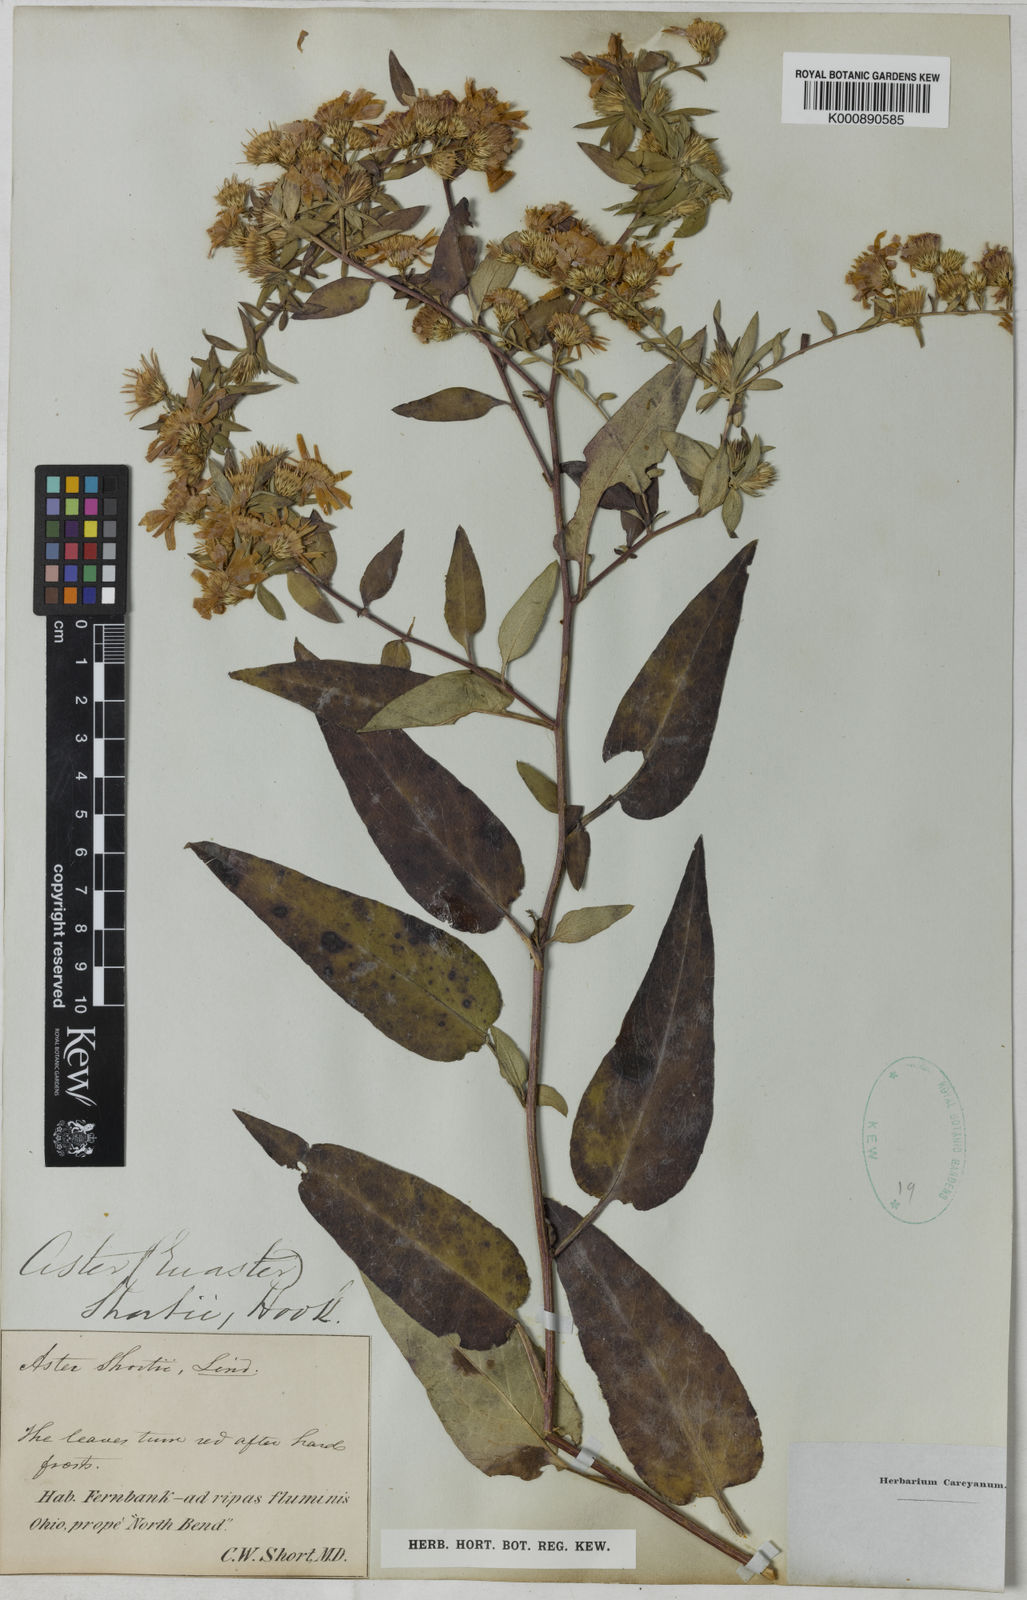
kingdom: Plantae
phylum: Tracheophyta
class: Magnoliopsida
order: Asterales
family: Asteraceae
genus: Aster
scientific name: Aster shortii
